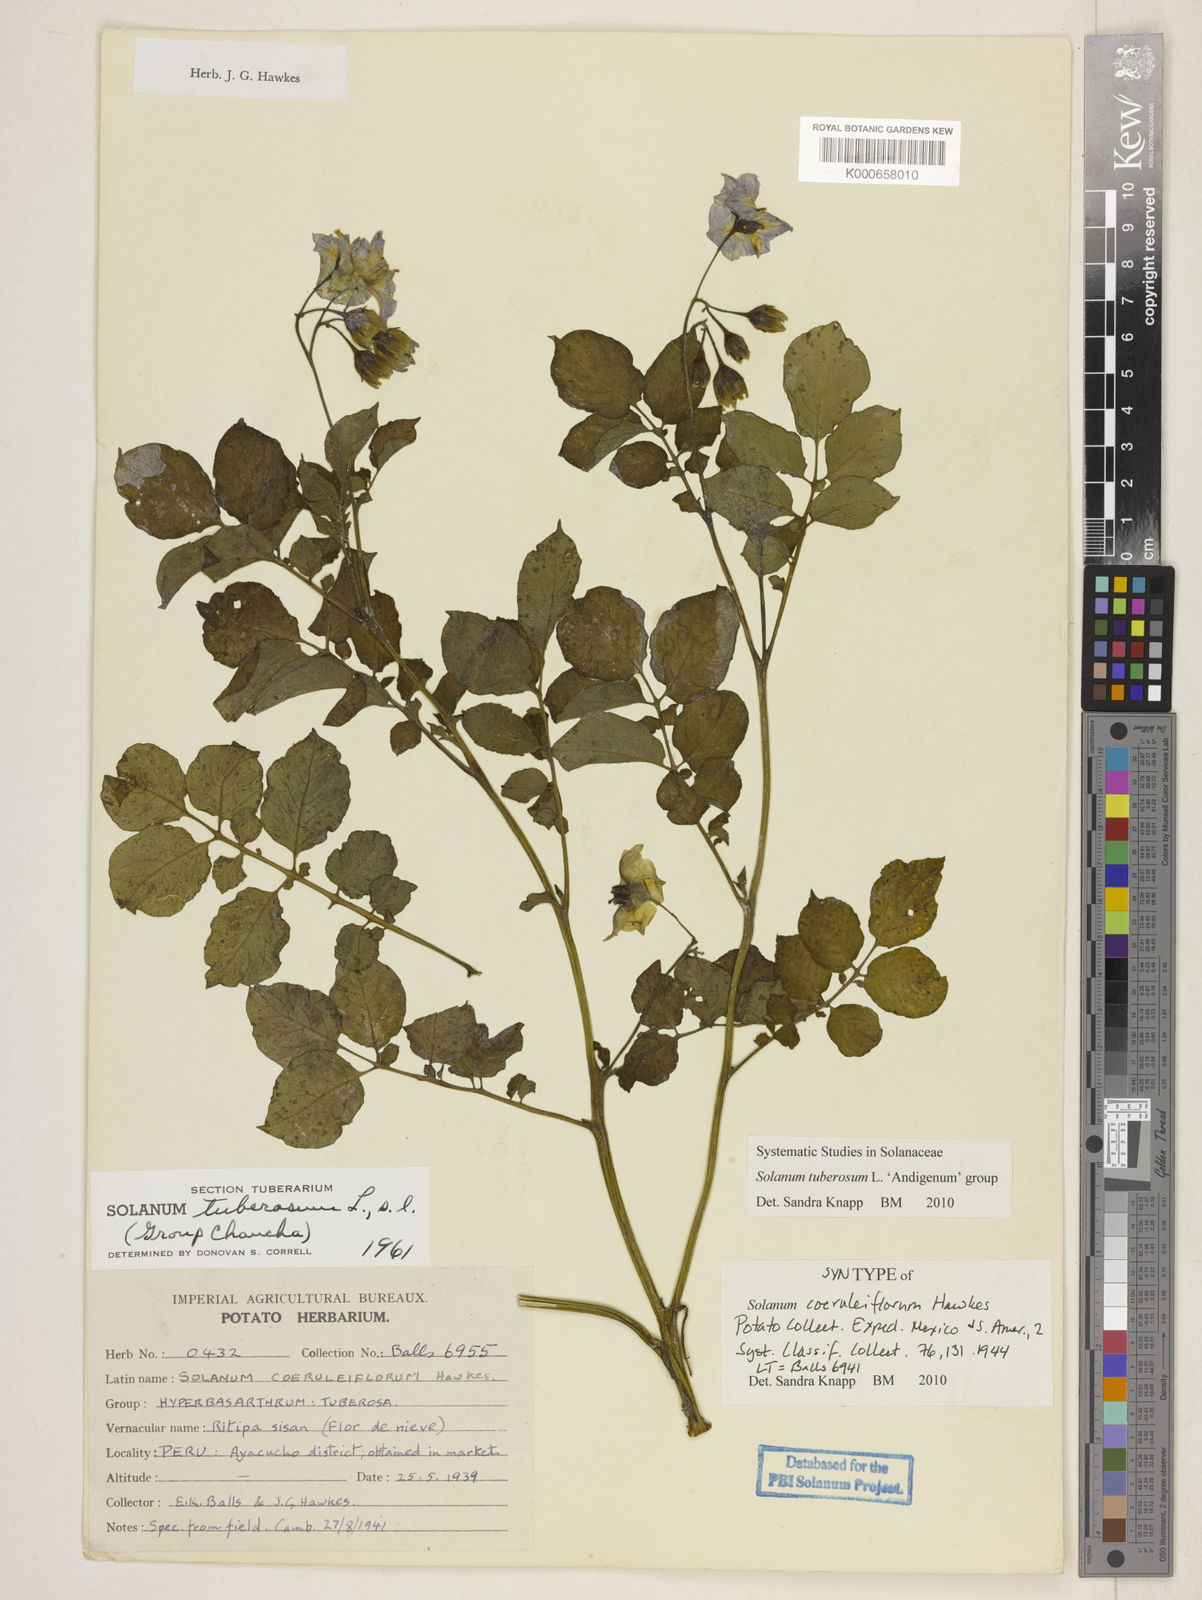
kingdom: Plantae
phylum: Tracheophyta
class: Magnoliopsida
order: Solanales
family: Solanaceae
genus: Solanum
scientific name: Solanum tuberosum
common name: Potato
